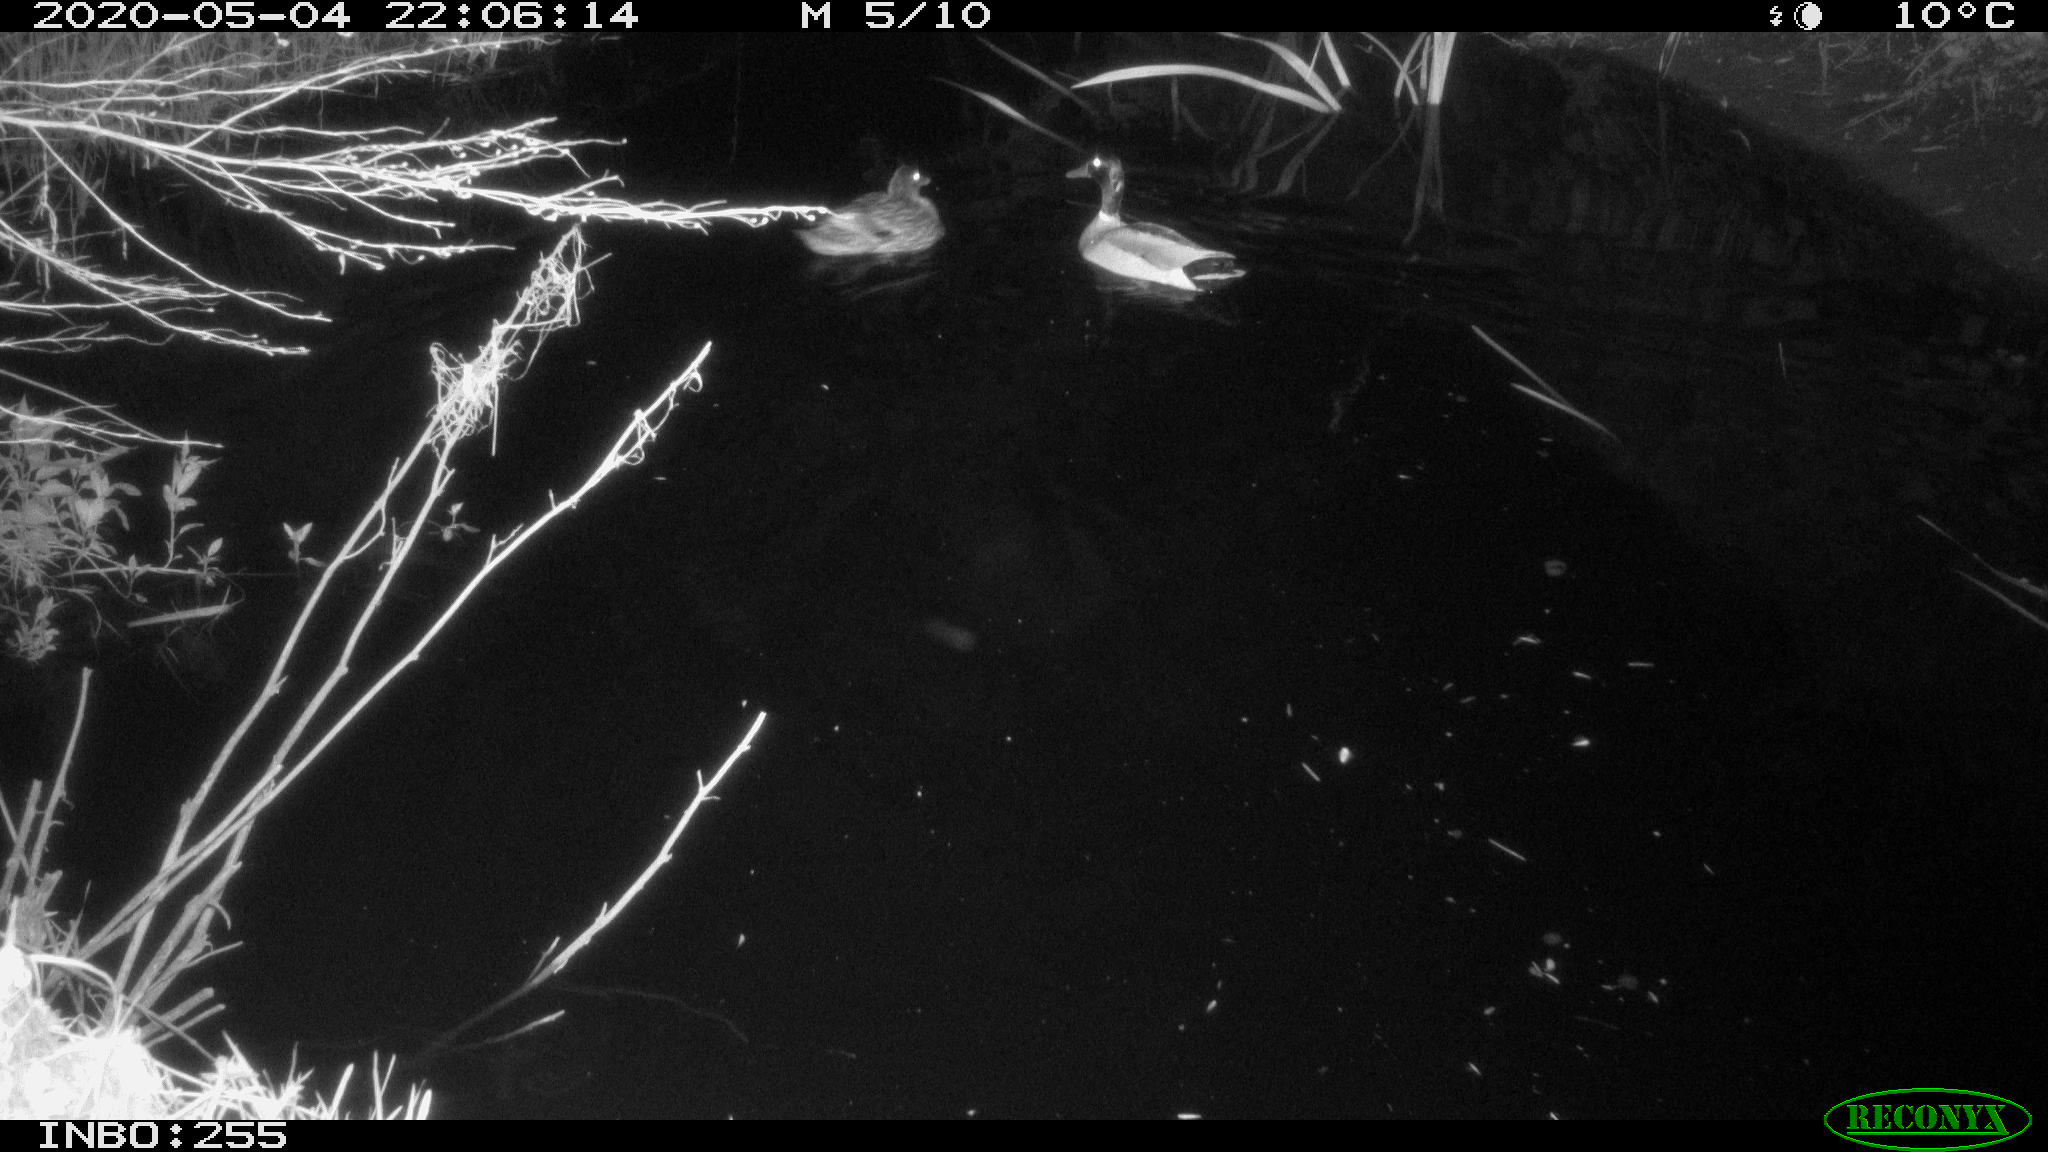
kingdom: Animalia
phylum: Chordata
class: Aves
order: Anseriformes
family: Anatidae
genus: Anas
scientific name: Anas platyrhynchos
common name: Mallard
